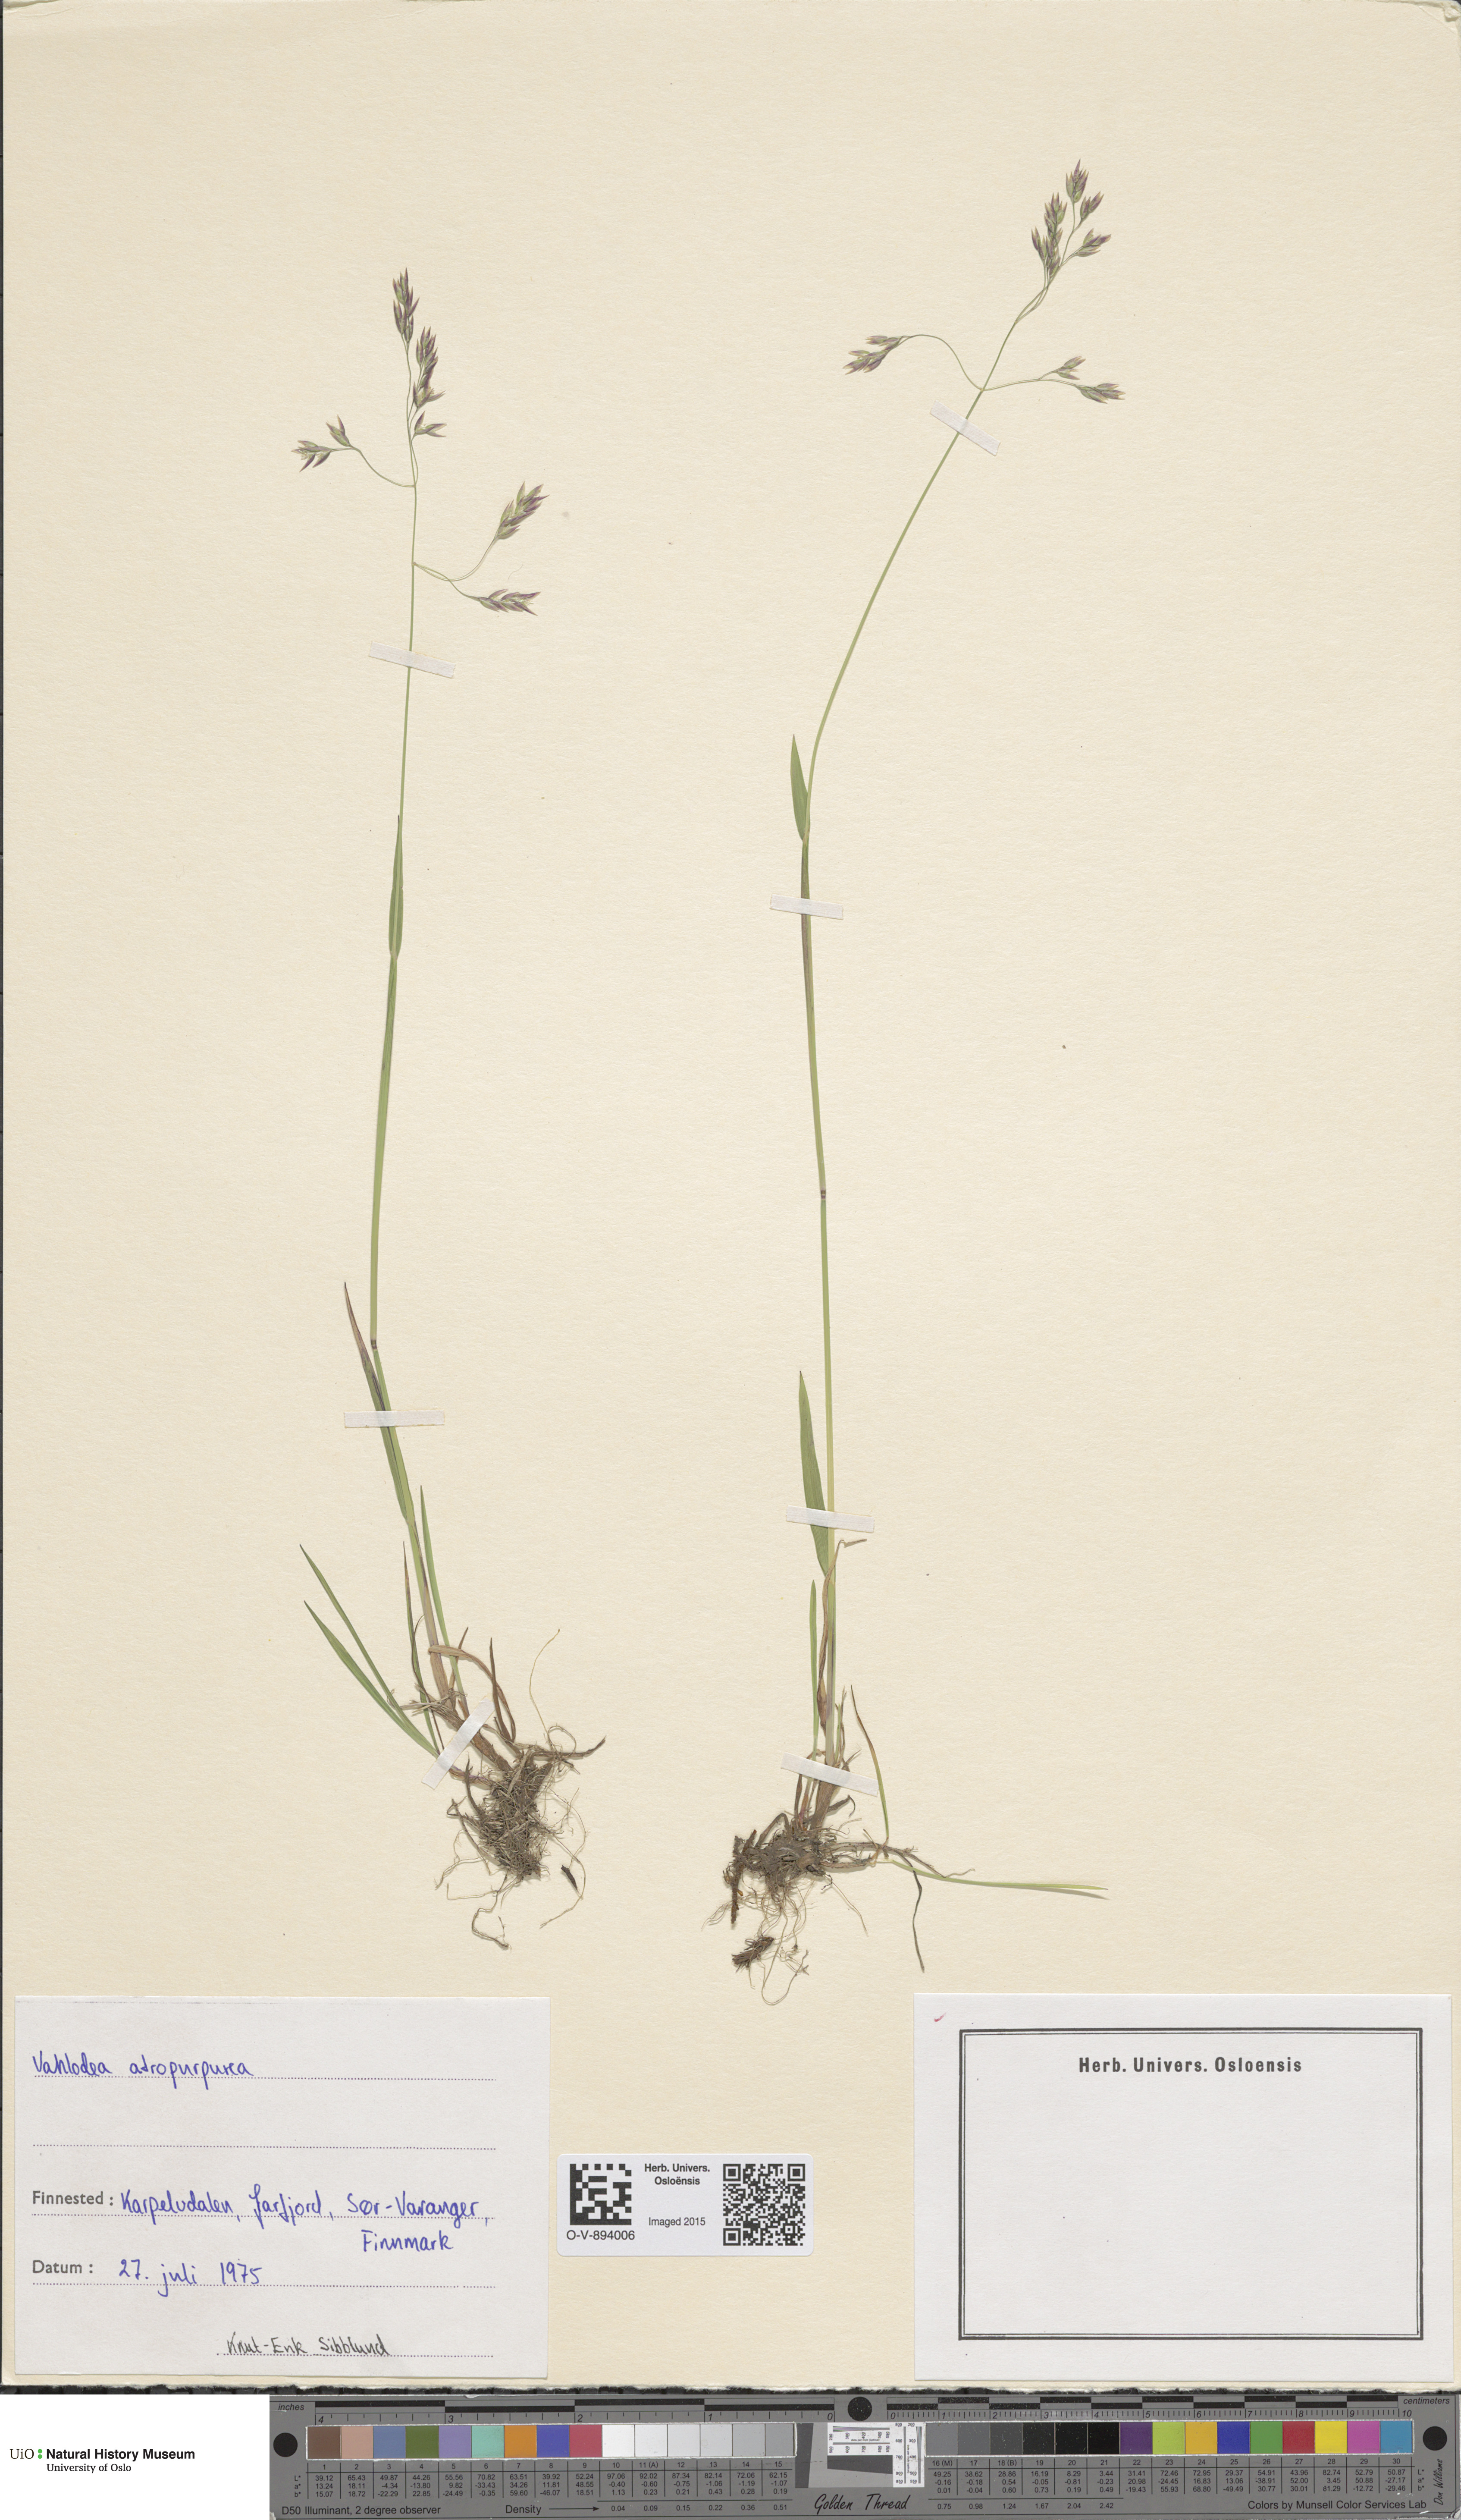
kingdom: Plantae
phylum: Tracheophyta
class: Liliopsida
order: Poales
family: Poaceae
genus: Vahlodea
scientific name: Vahlodea atropurpurea
